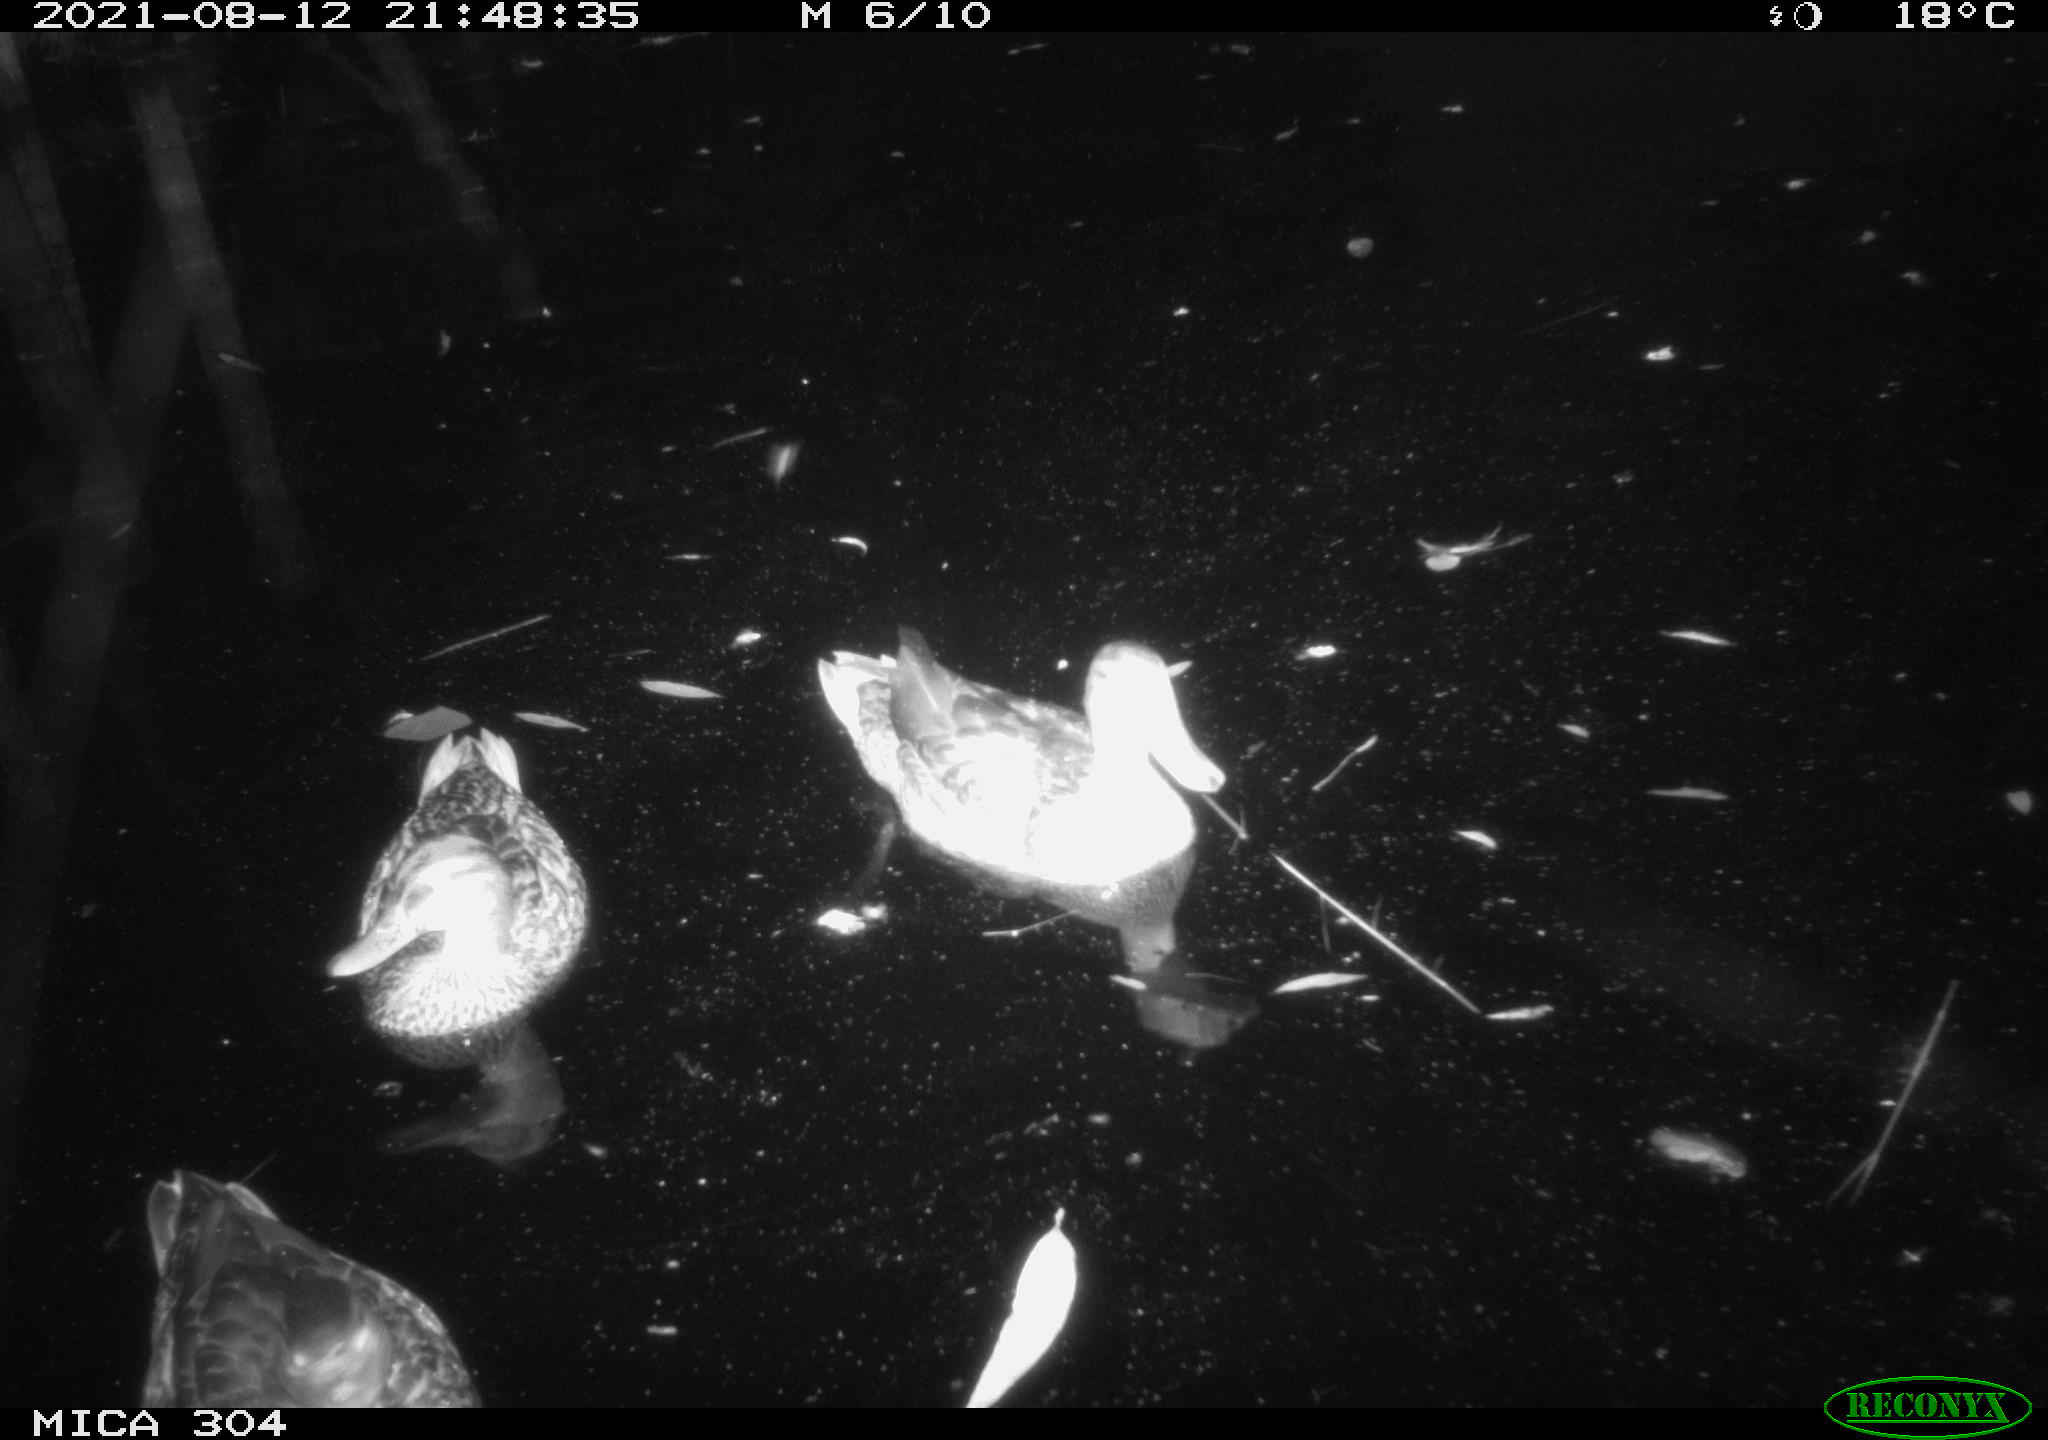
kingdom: Animalia
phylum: Chordata
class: Aves
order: Anseriformes
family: Anatidae
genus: Anas
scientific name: Anas platyrhynchos
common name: Mallard
